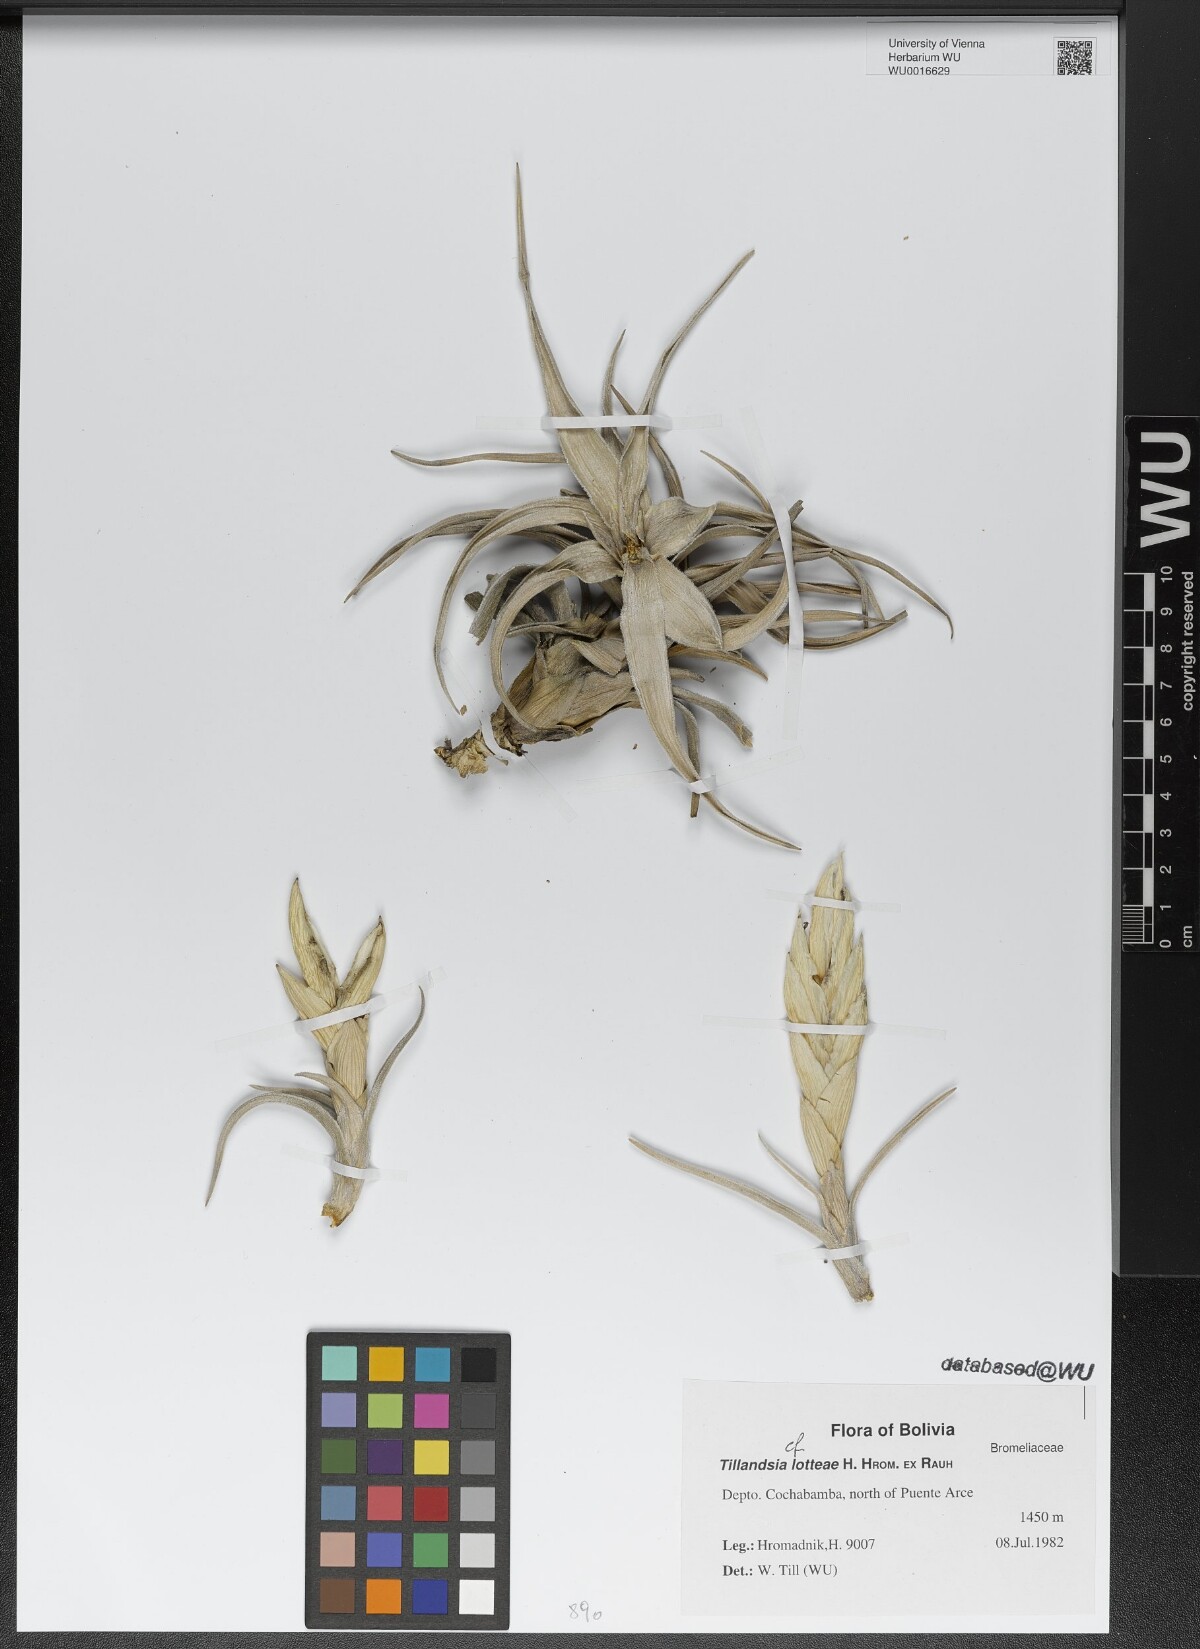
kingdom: Plantae
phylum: Tracheophyta
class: Liliopsida
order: Poales
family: Bromeliaceae
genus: Tillandsia
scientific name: Tillandsia lotteae
